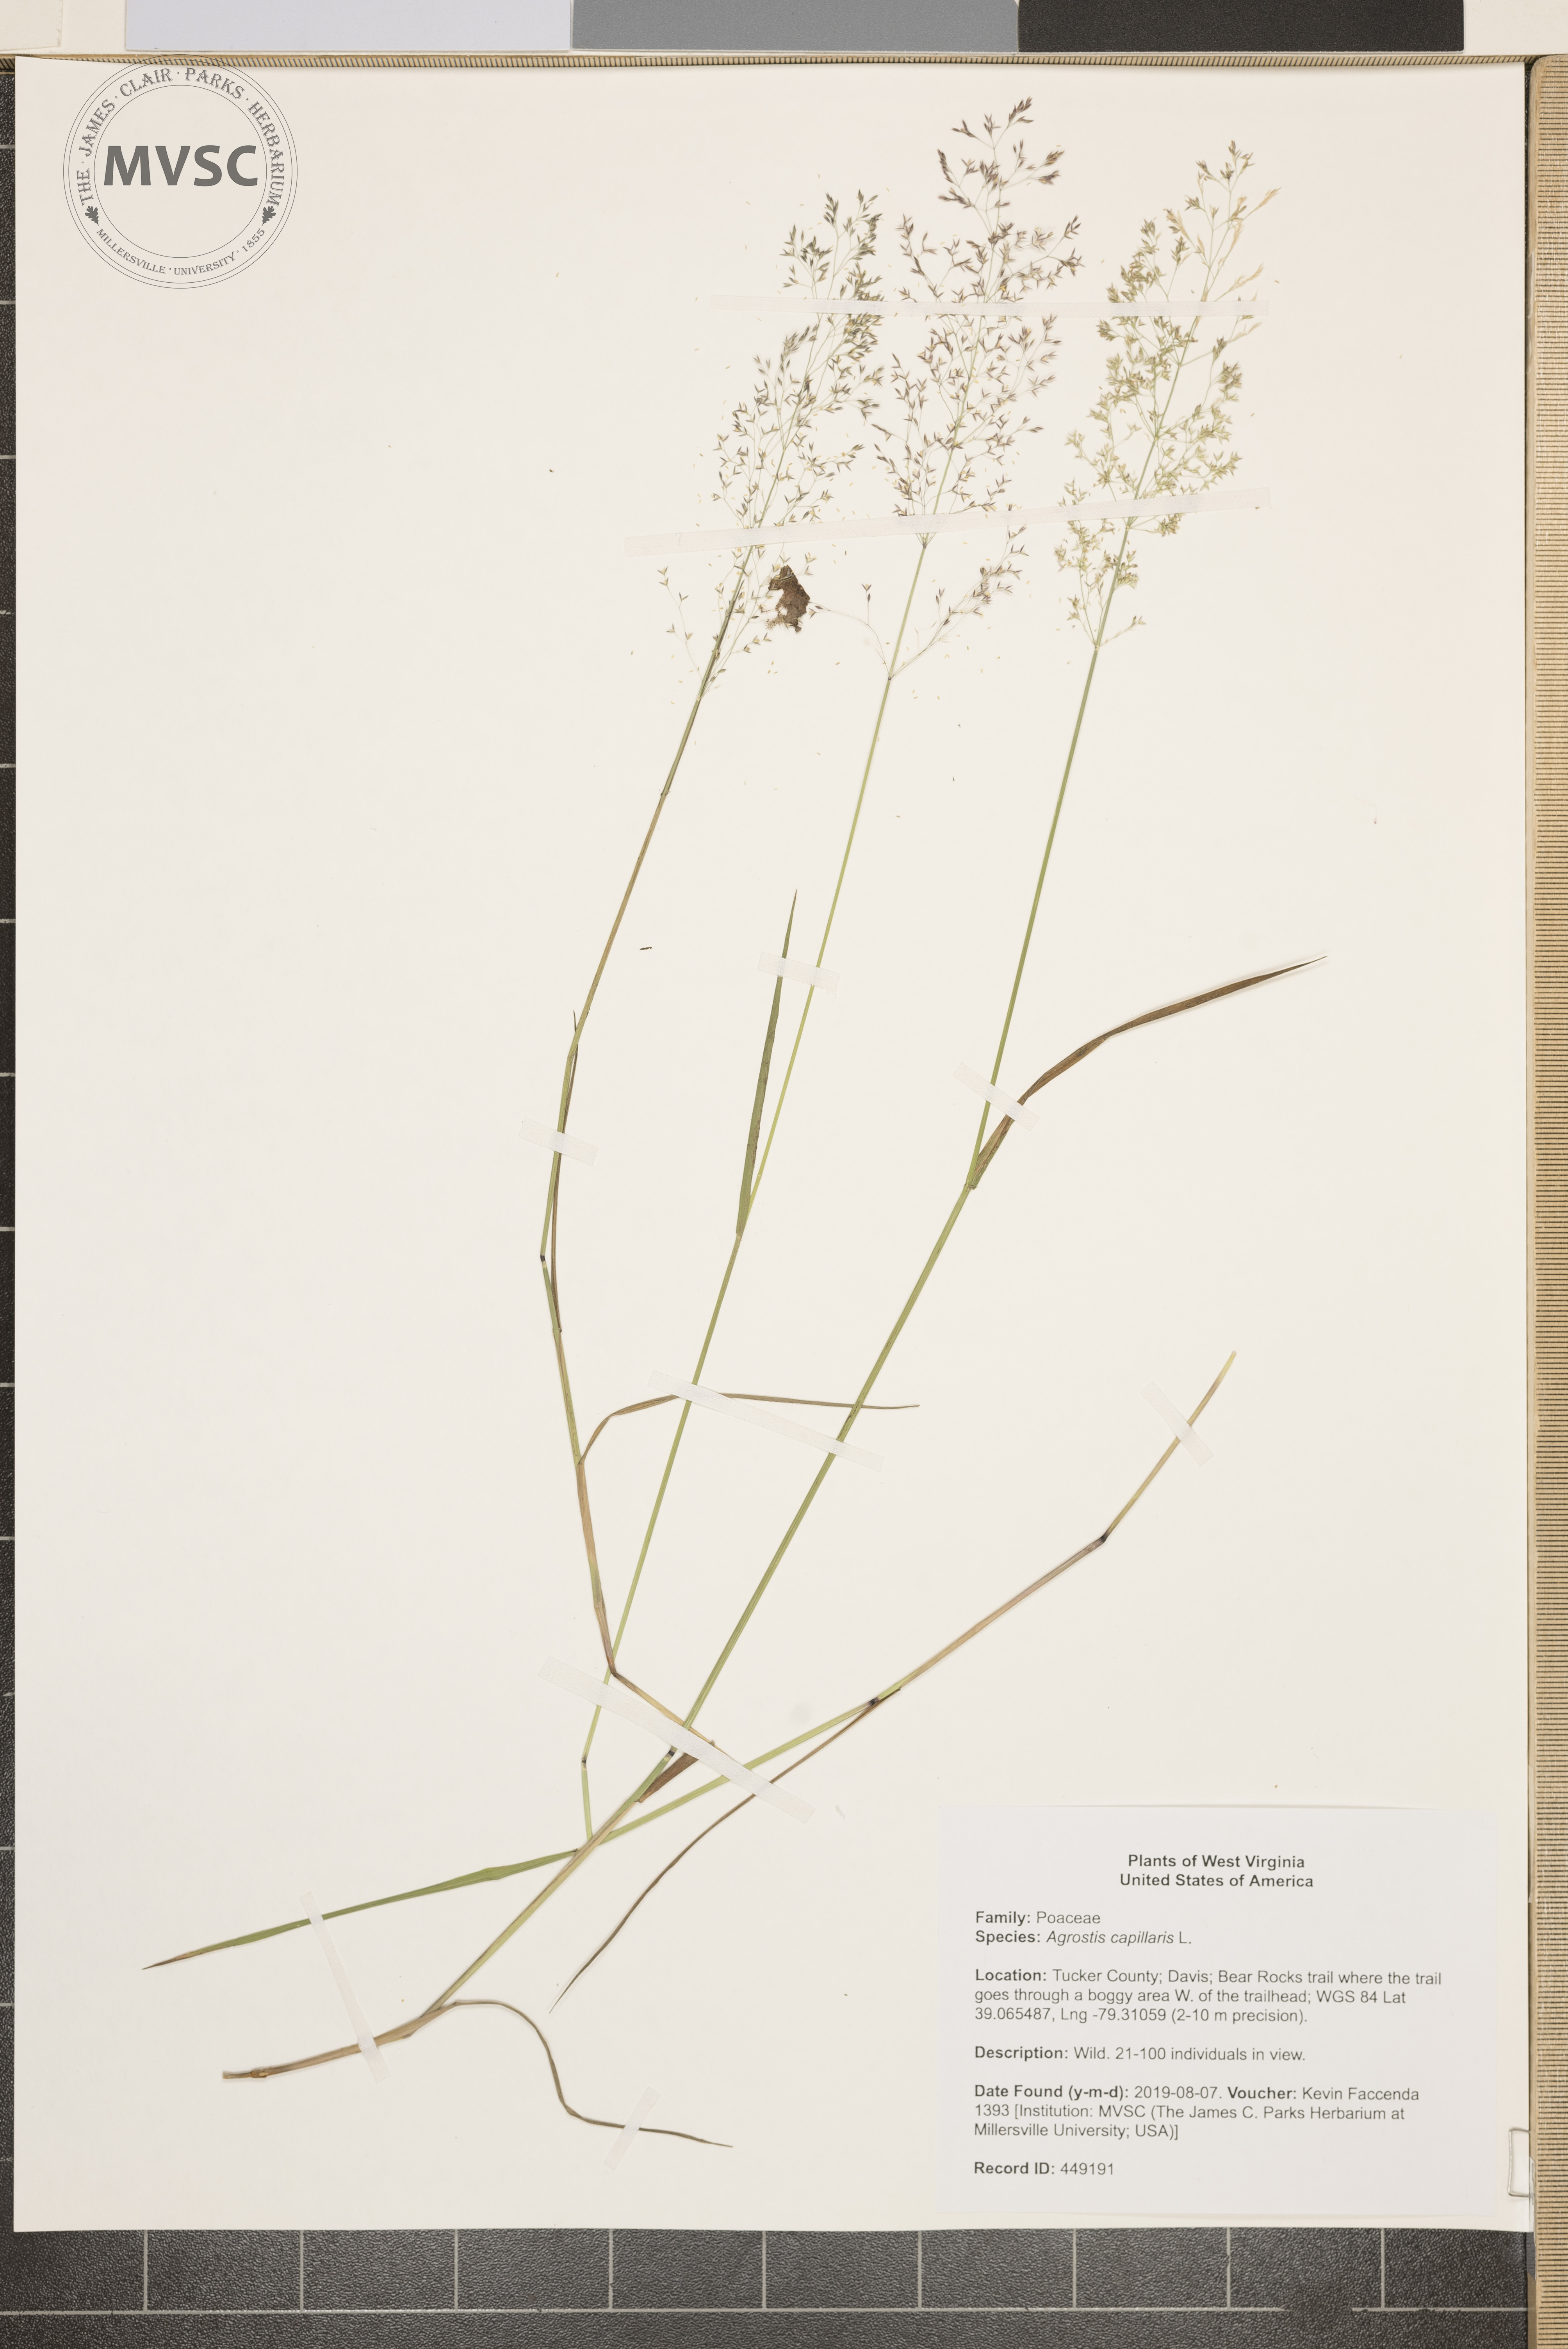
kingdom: Plantae
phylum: Tracheophyta
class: Liliopsida
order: Poales
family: Poaceae
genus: Agrostis
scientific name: Agrostis capillaris
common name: Colonial bentgrass
